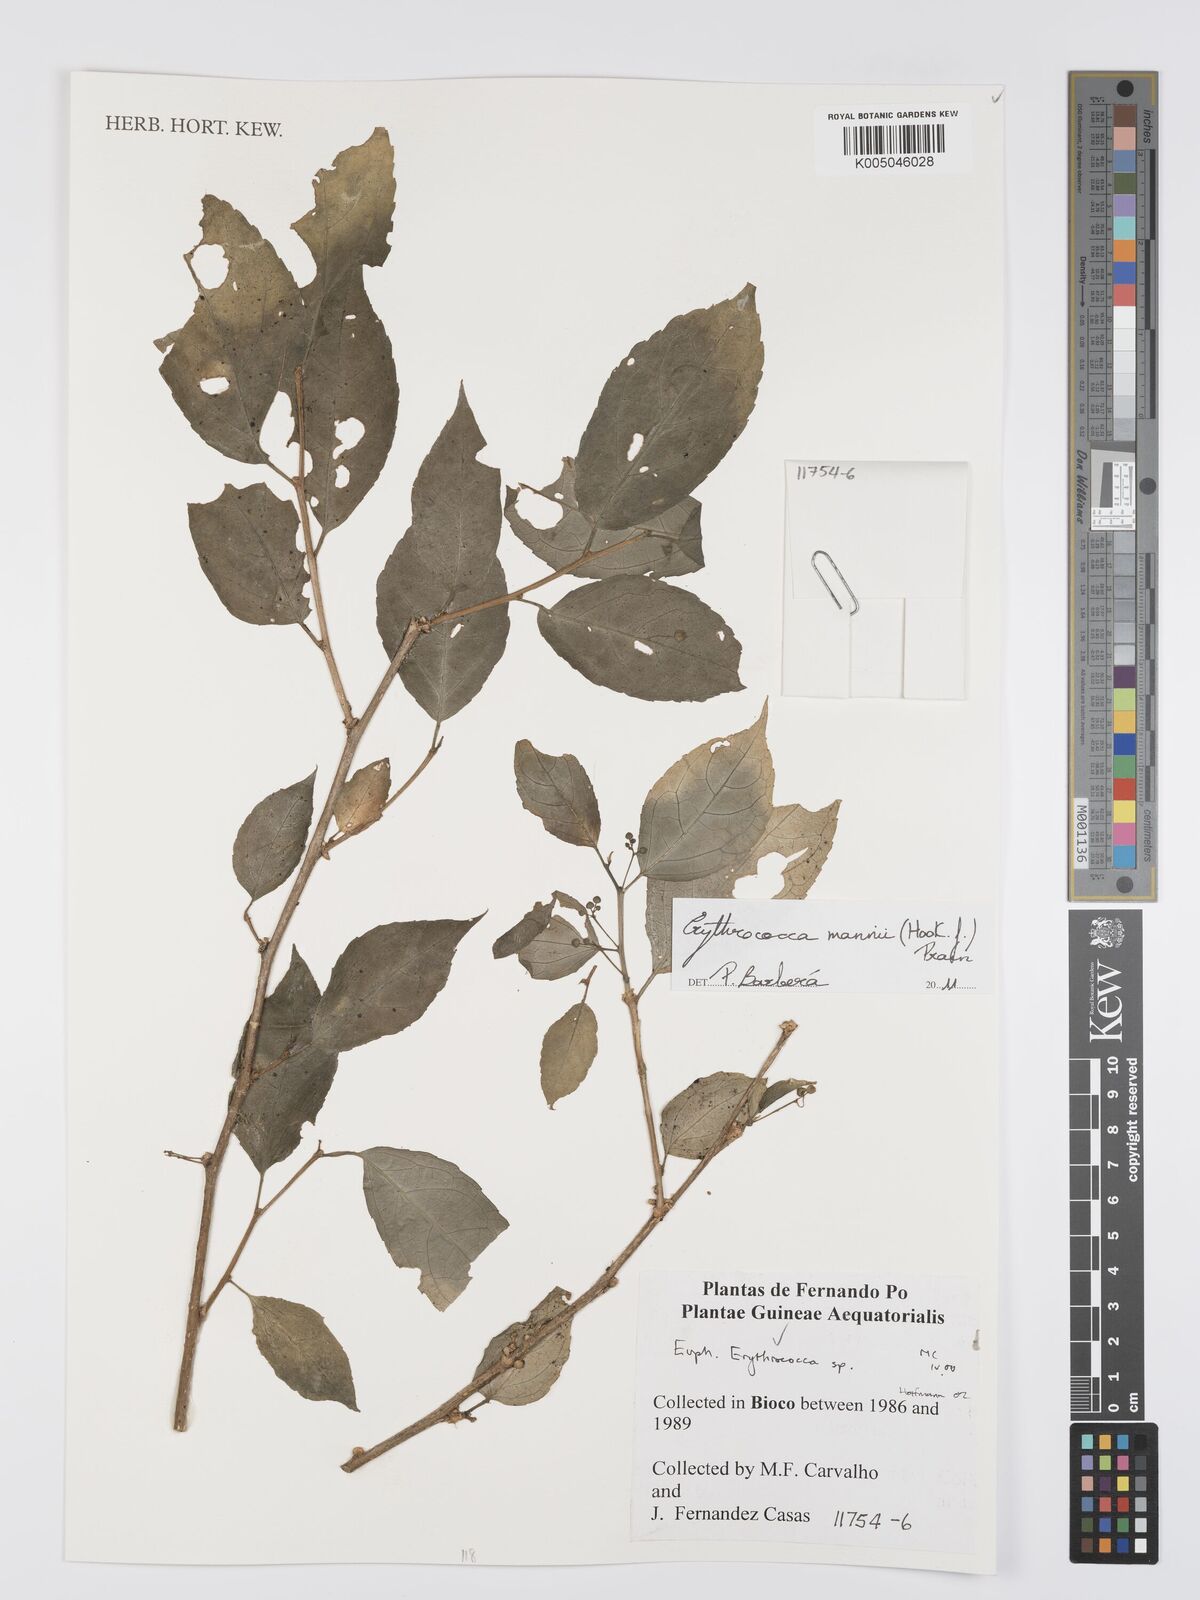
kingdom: Plantae
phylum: Tracheophyta
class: Magnoliopsida
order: Malpighiales
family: Euphorbiaceae
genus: Erythrococca
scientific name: Erythrococca mannii
